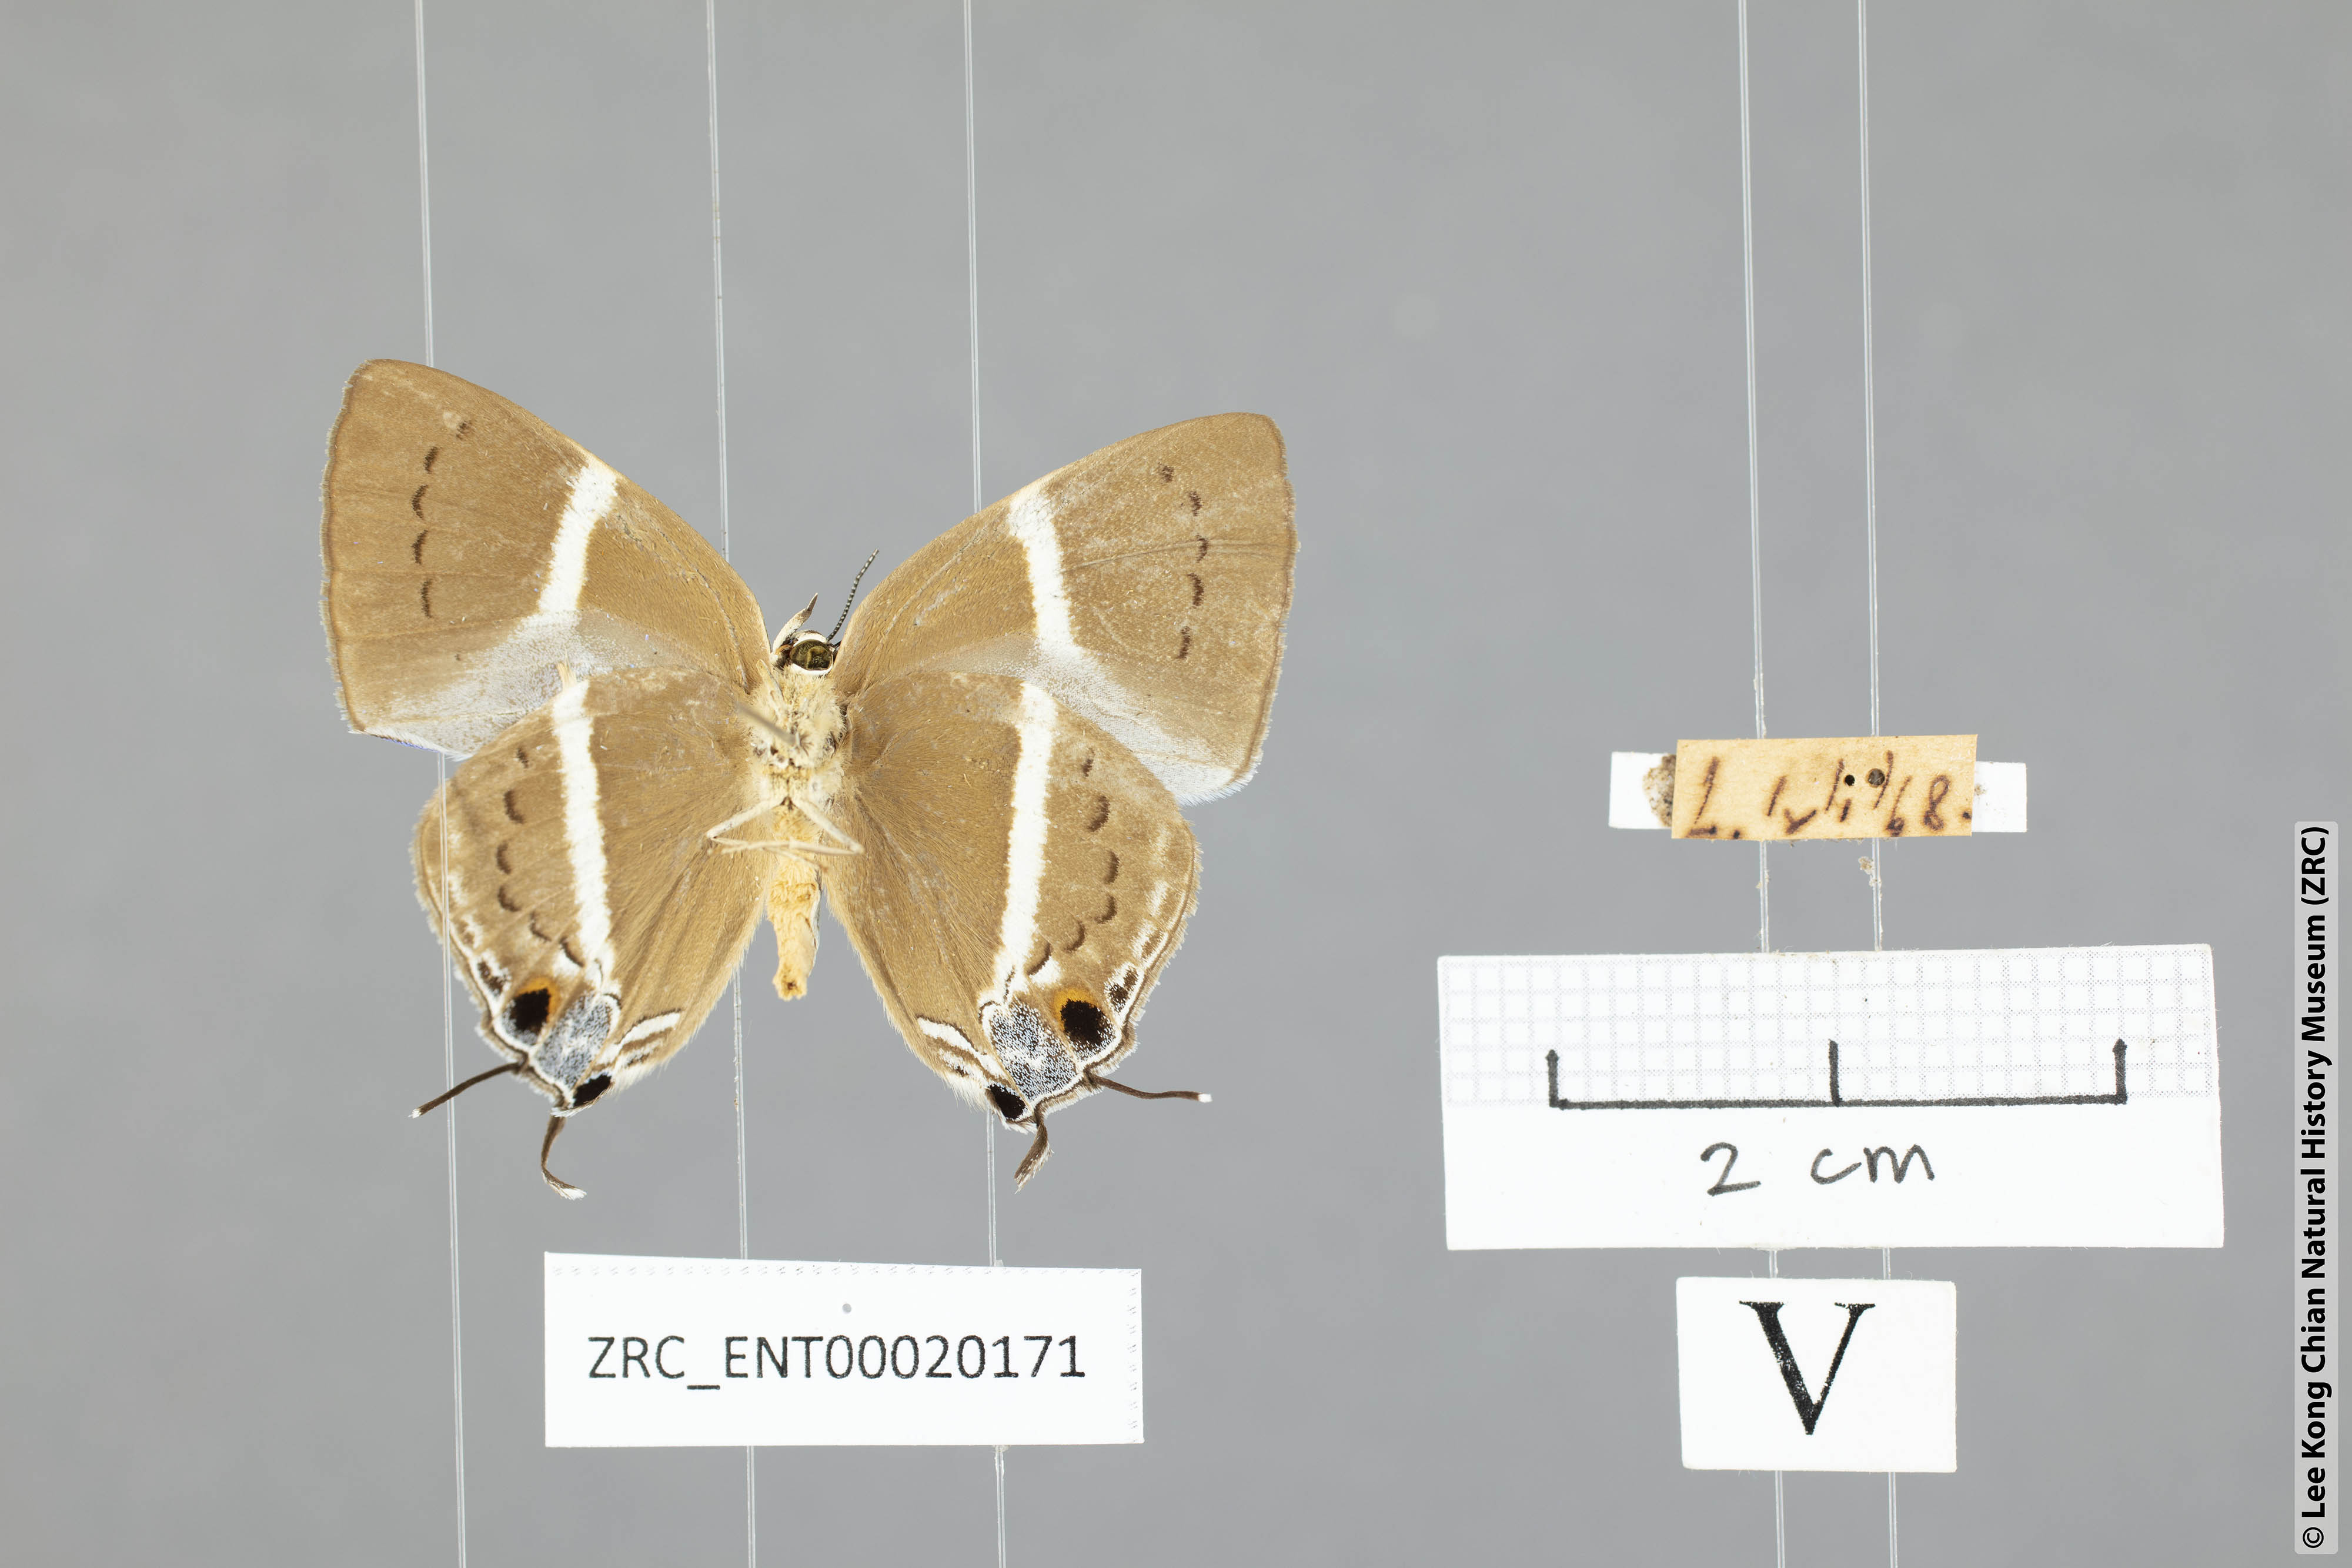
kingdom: Animalia
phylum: Arthropoda
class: Insecta
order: Lepidoptera
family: Lycaenidae
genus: Dacalana
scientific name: Dacalana vidura
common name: Medium-branded royal
